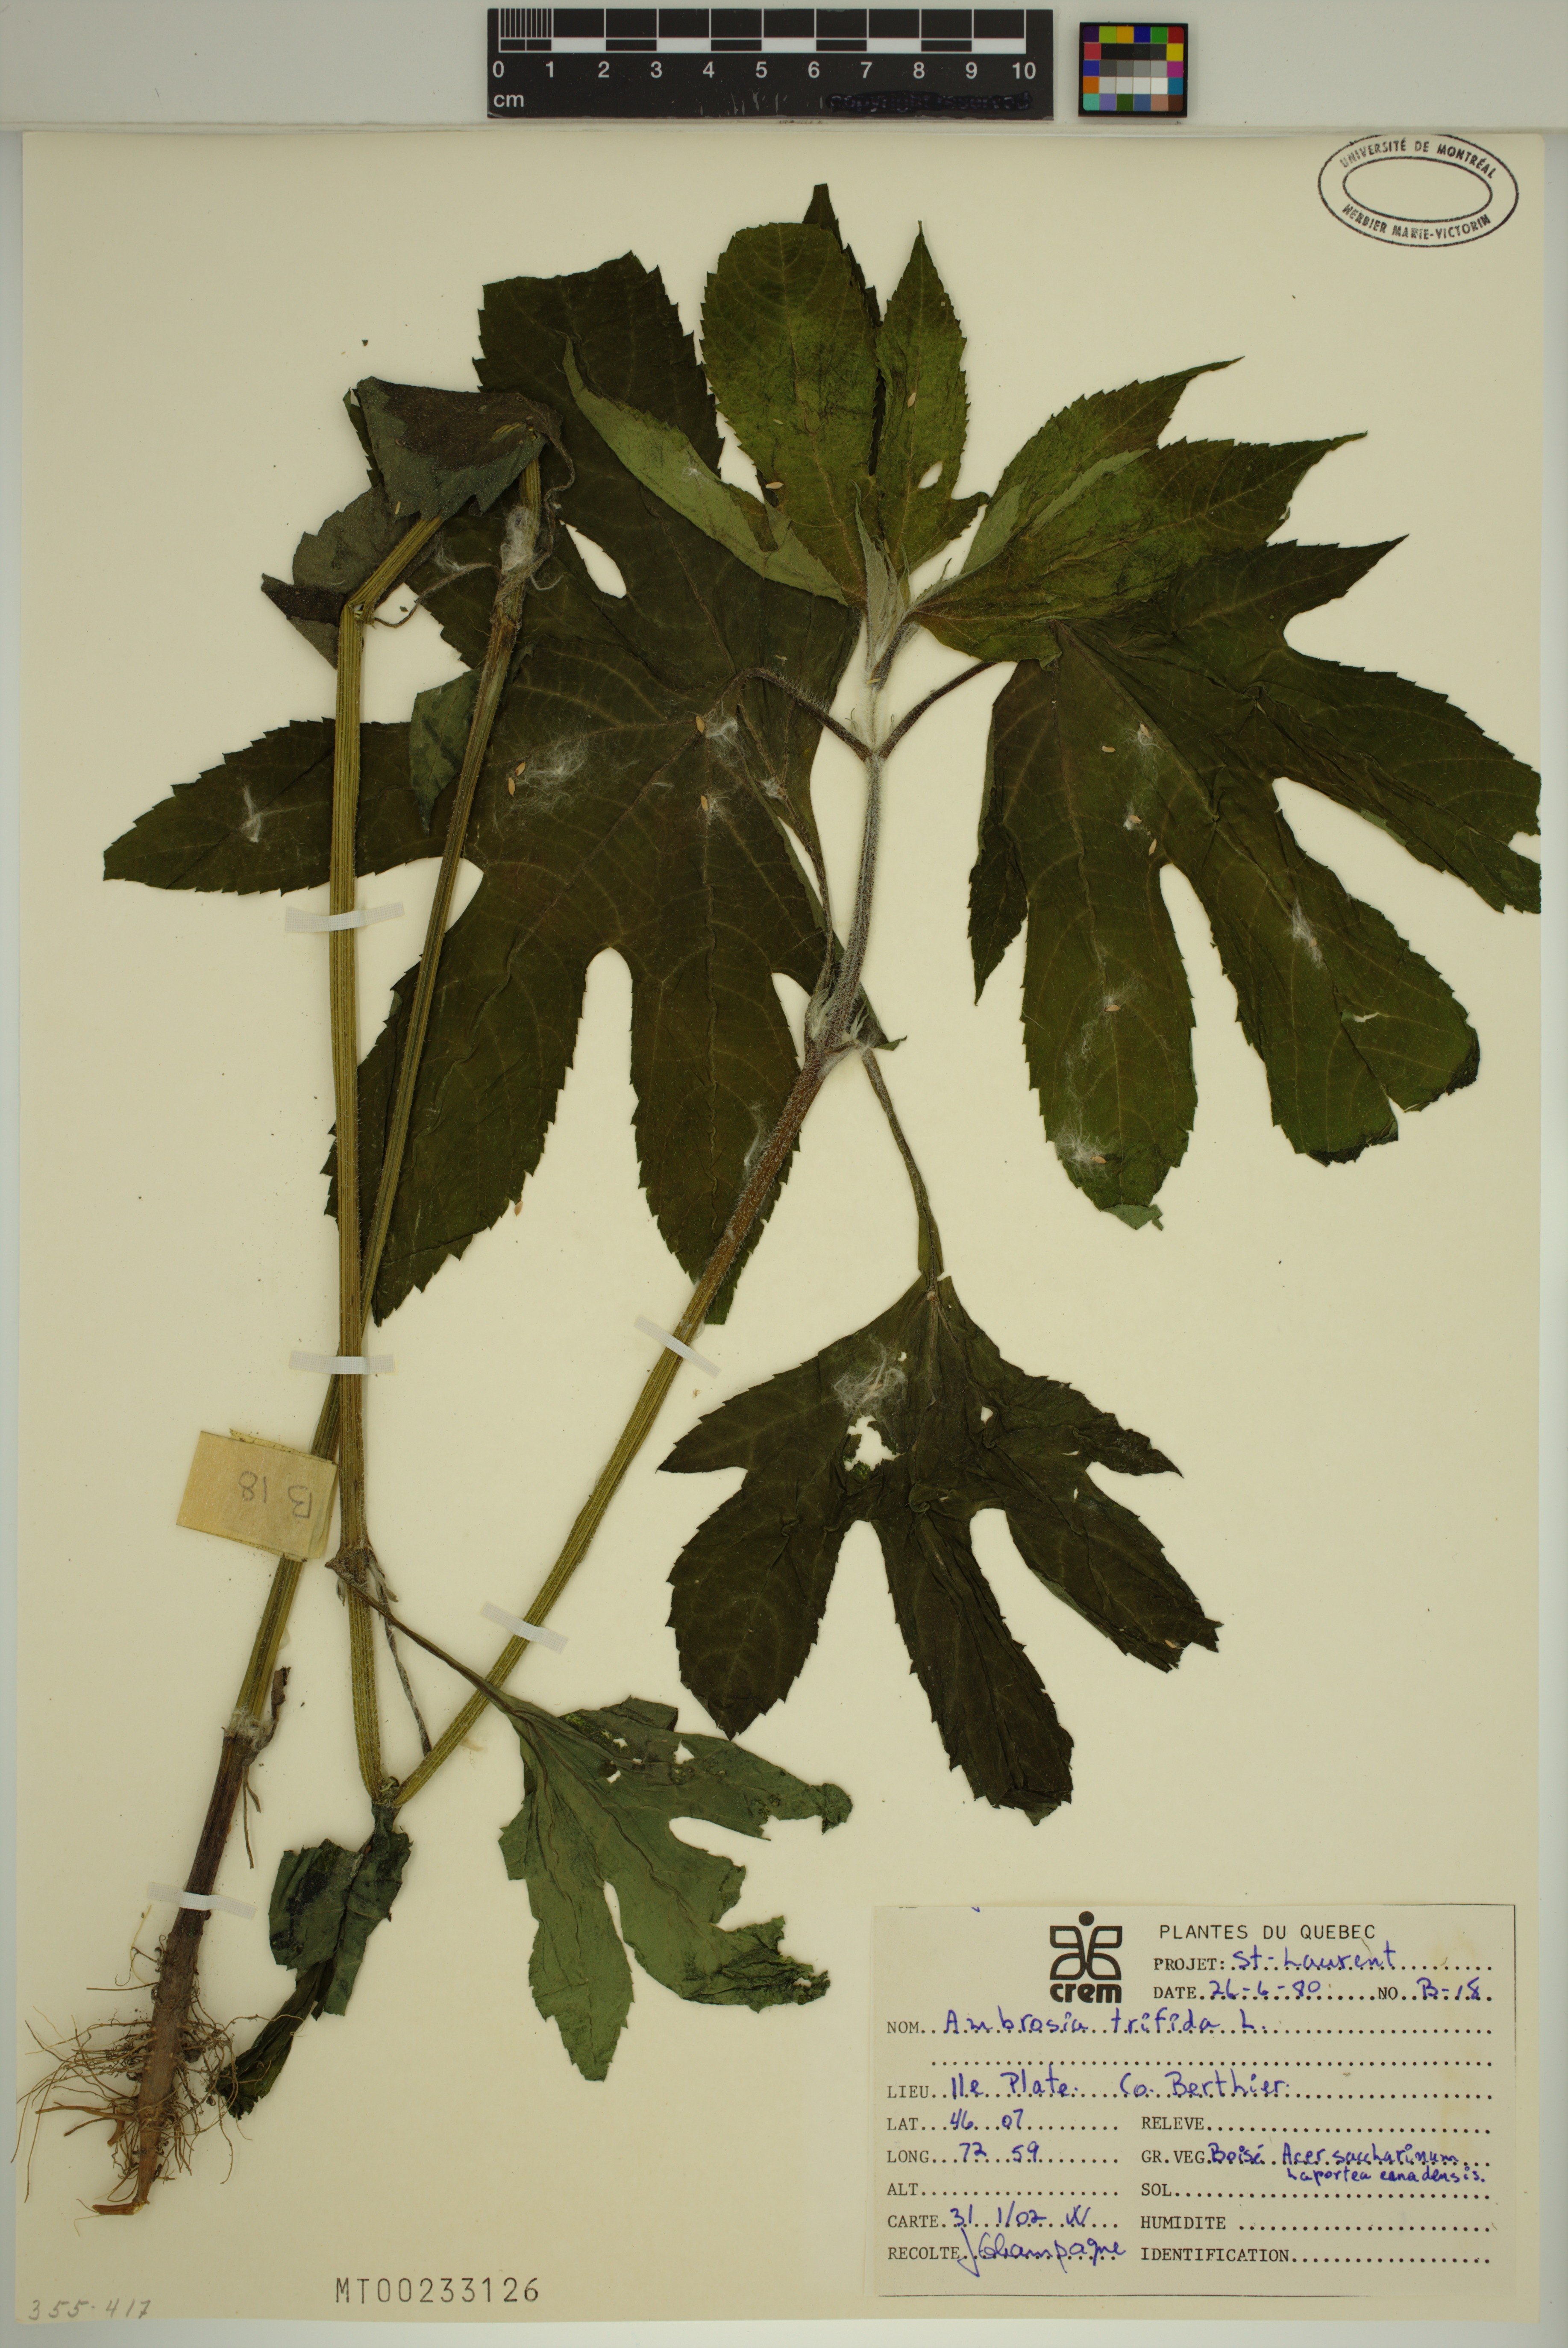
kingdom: Plantae
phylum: Tracheophyta
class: Magnoliopsida
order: Asterales
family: Asteraceae
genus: Ambrosia
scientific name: Ambrosia trifida
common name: Giant ragweed
